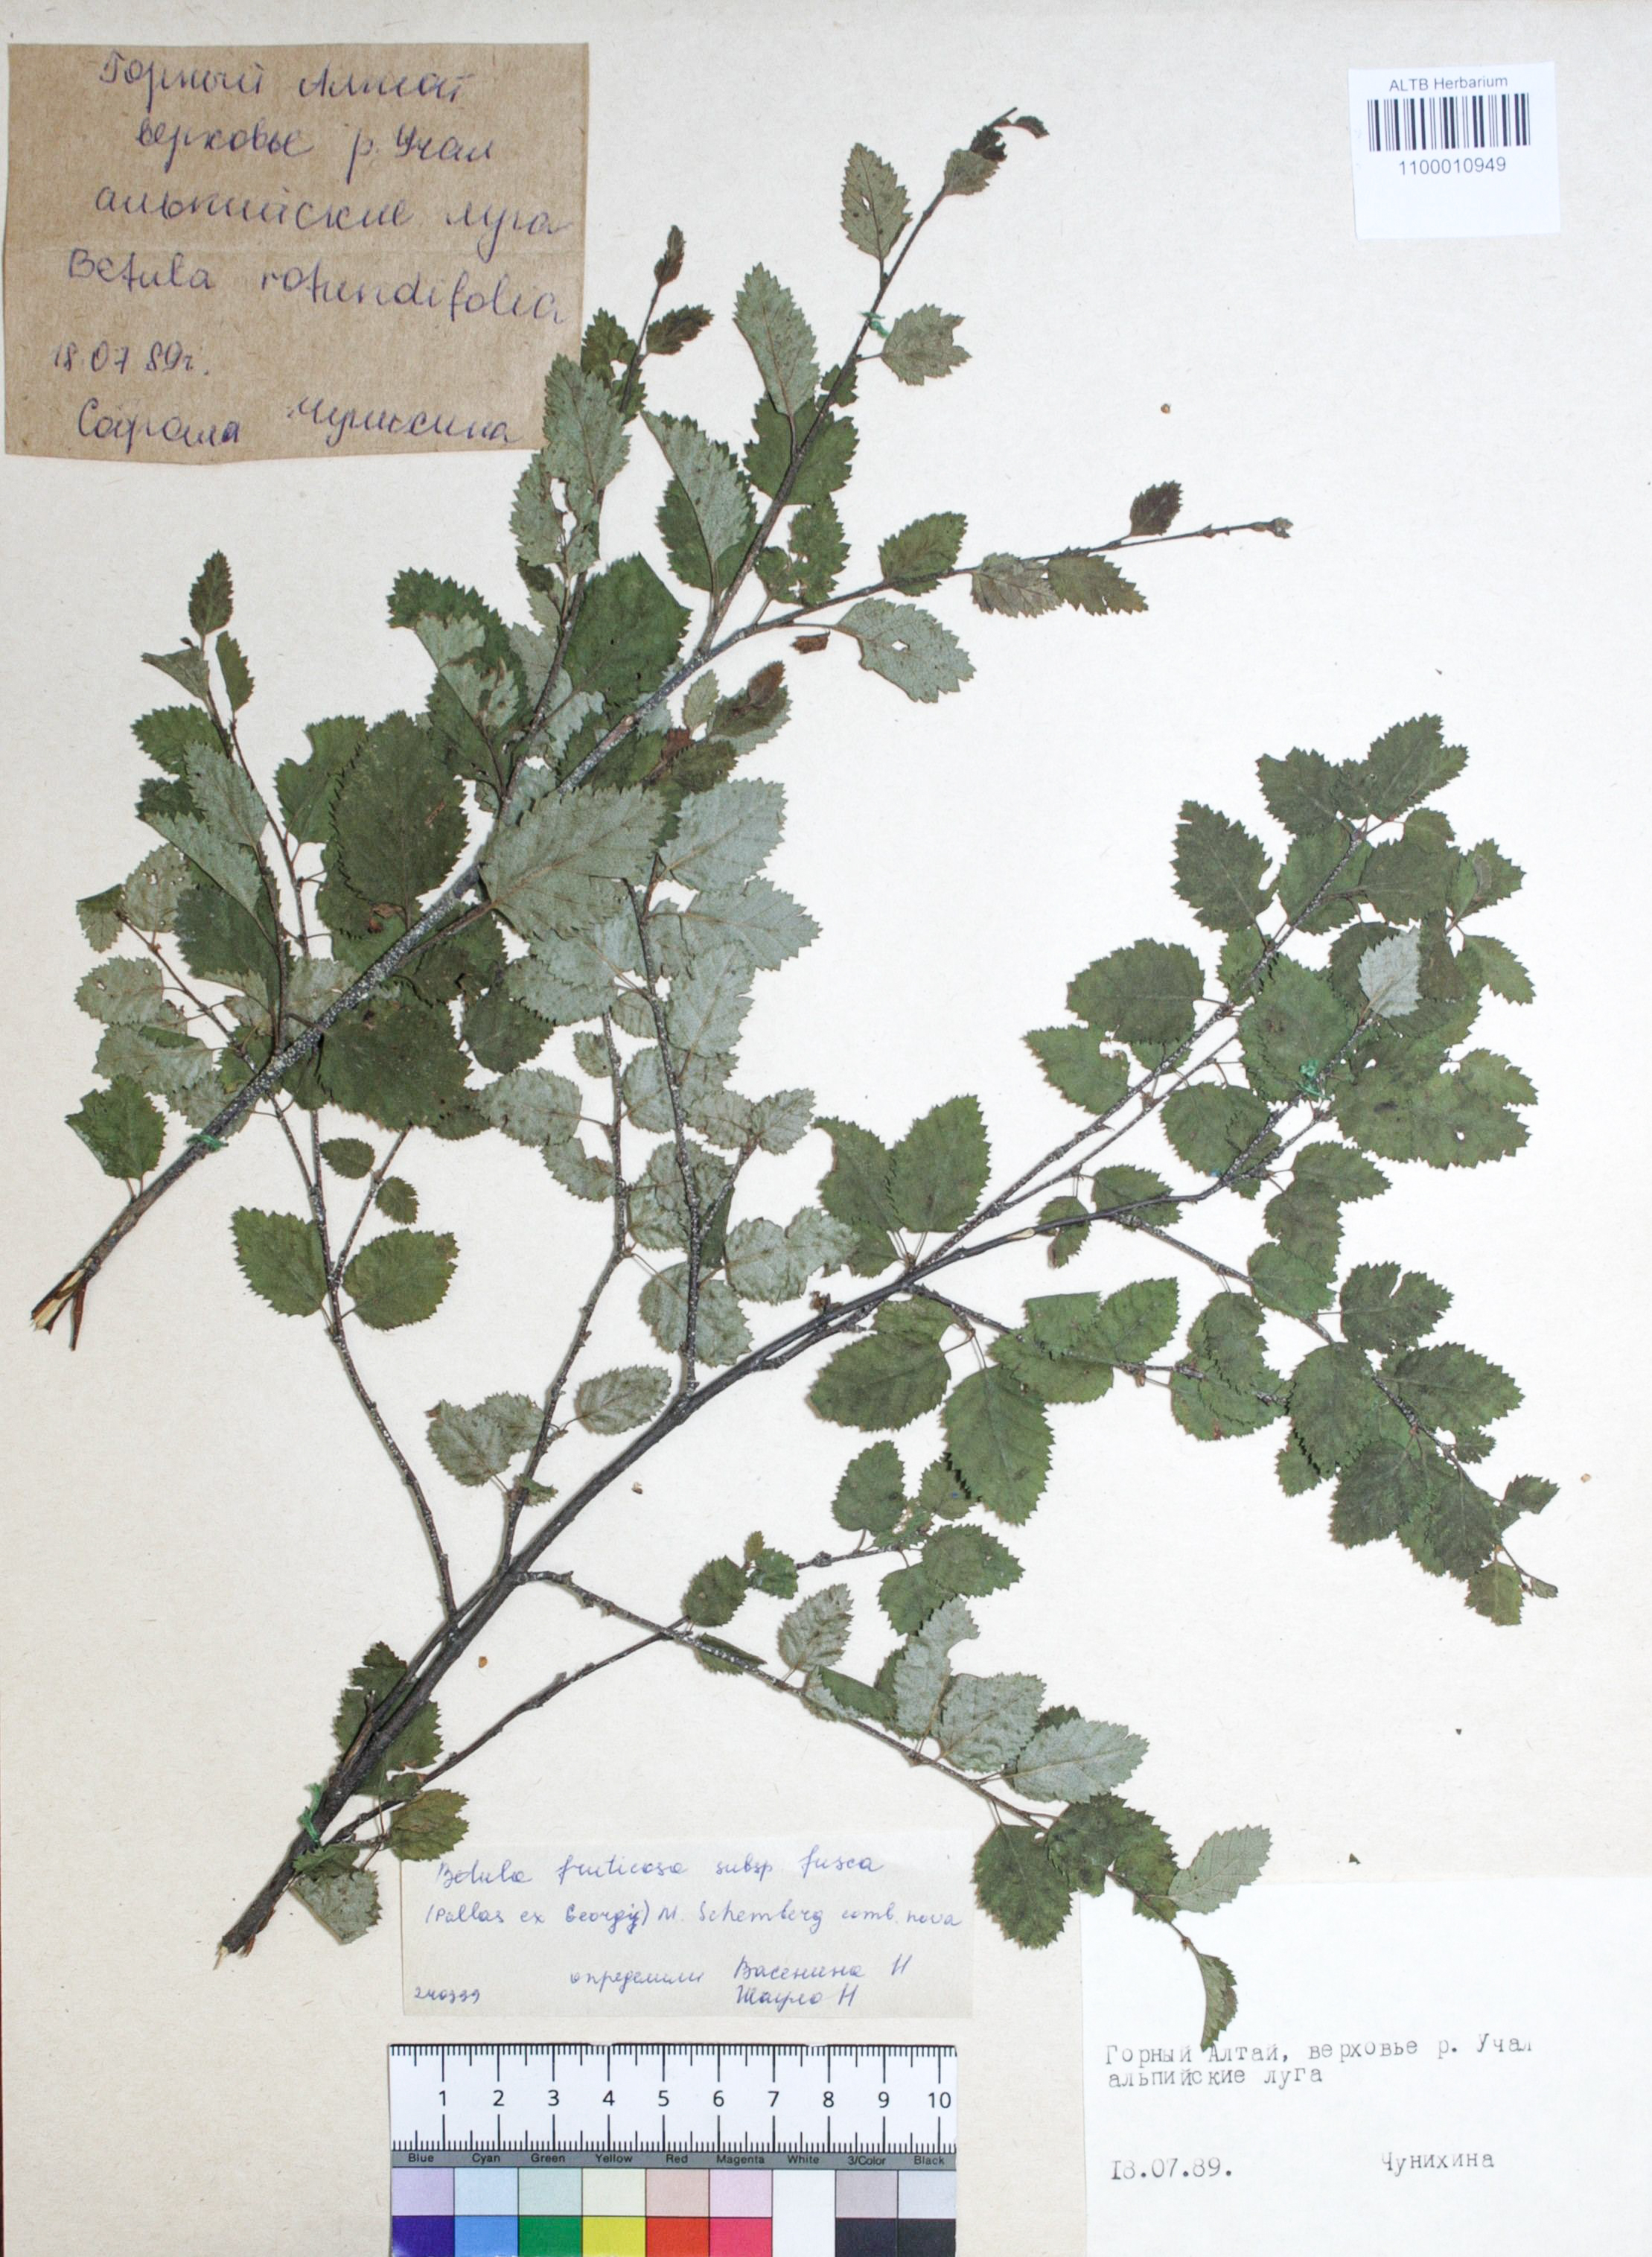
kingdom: Plantae
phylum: Tracheophyta
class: Magnoliopsida
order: Fagales
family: Betulaceae
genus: Betula
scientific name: Betula fruticosa
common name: Japanese bog birch
